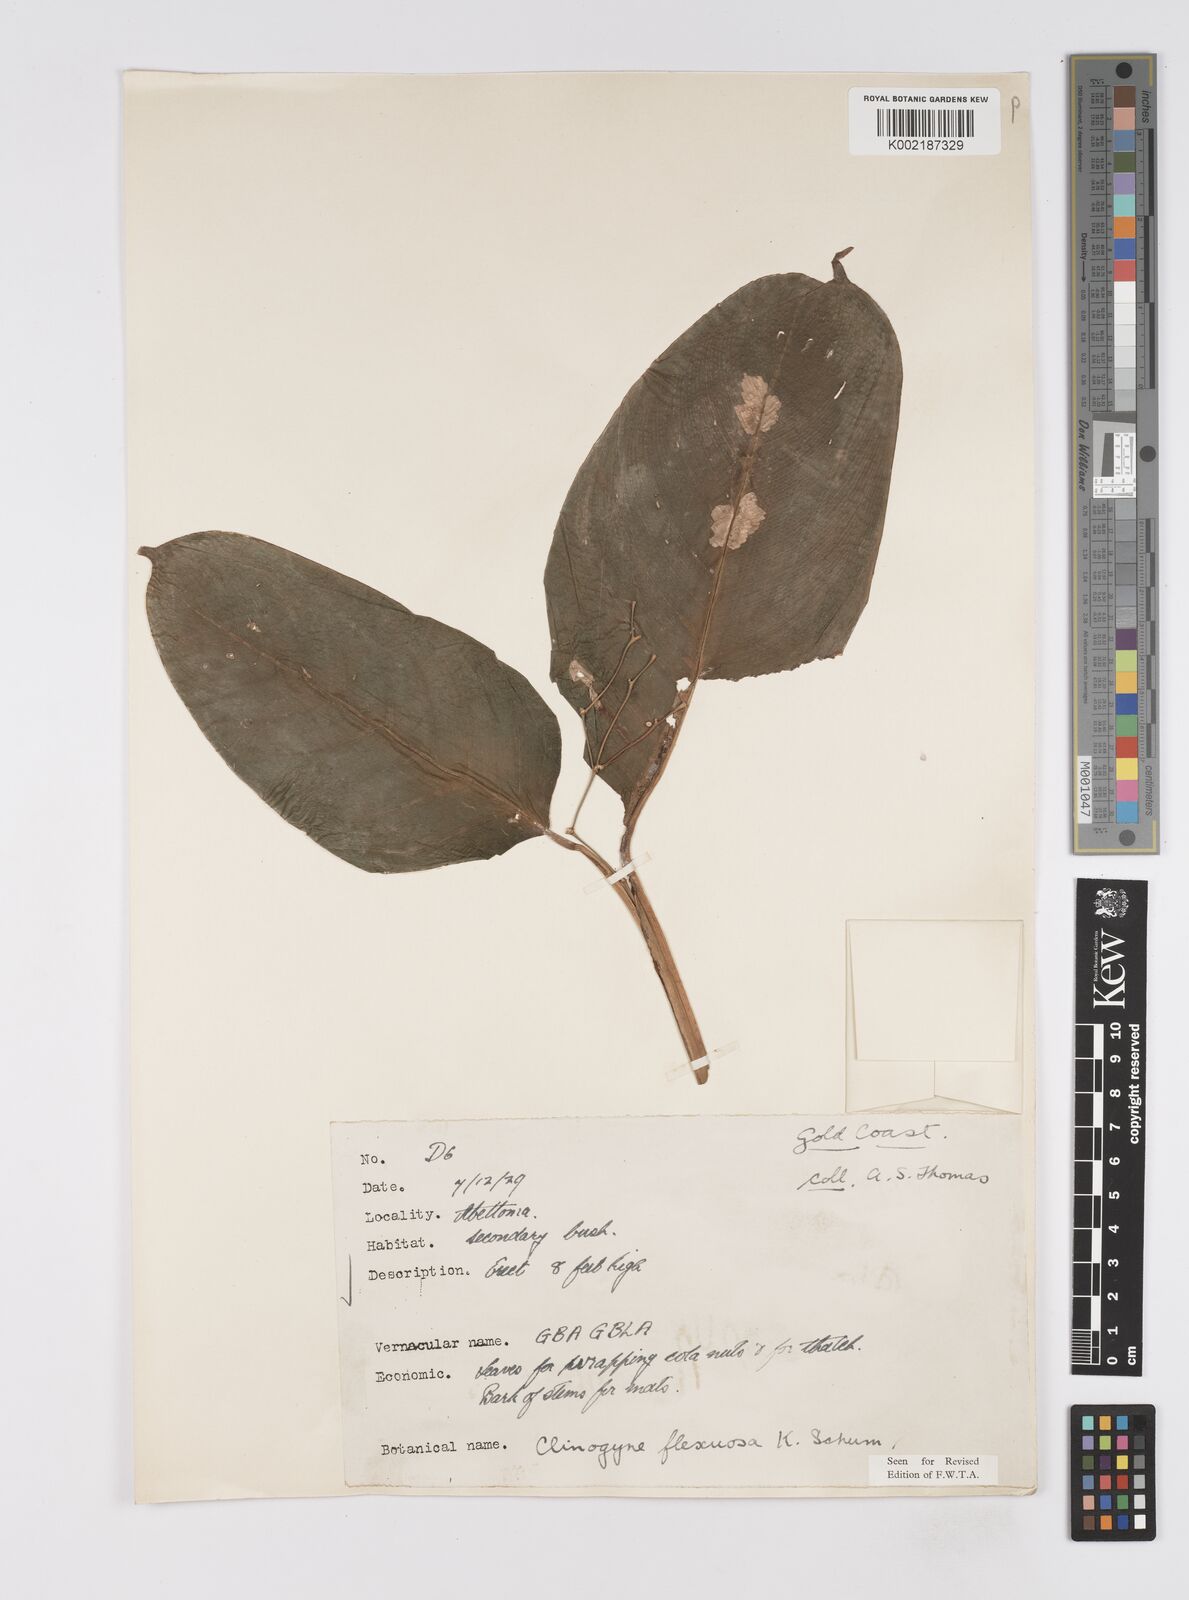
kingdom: Plantae
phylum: Tracheophyta
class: Liliopsida
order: Zingiberales
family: Marantaceae
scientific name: Marantaceae
